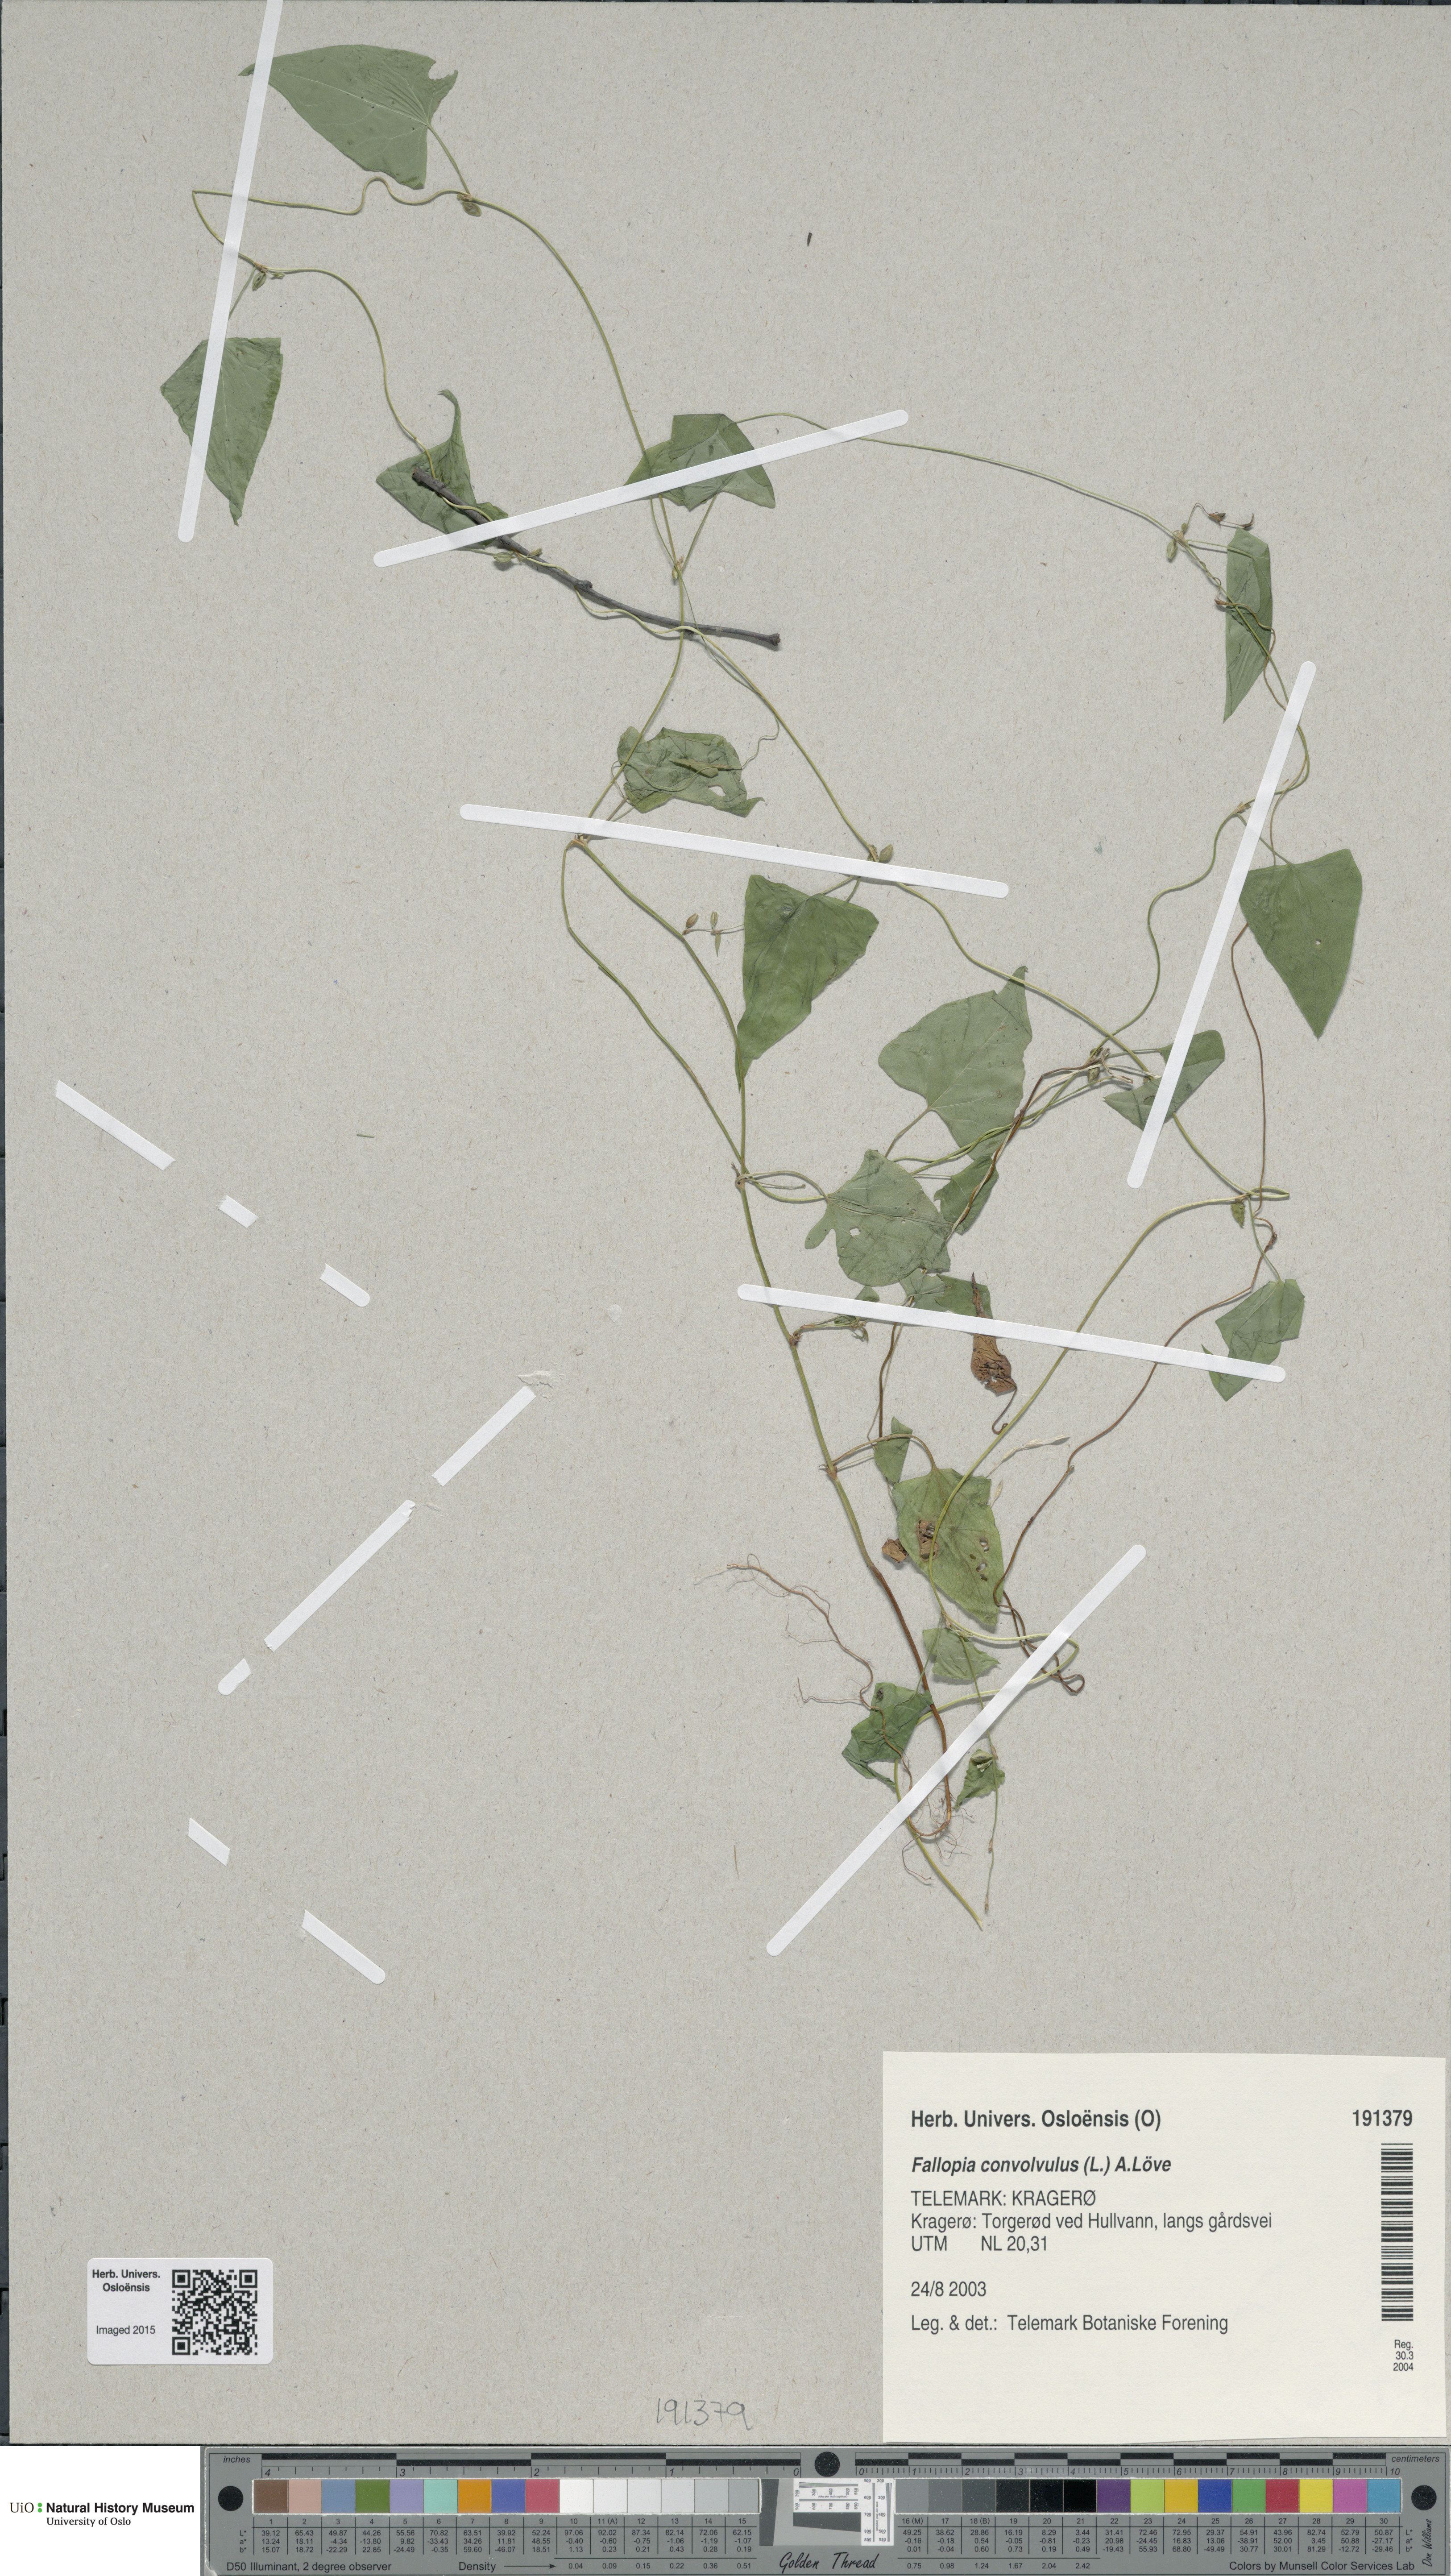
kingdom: Plantae
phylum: Tracheophyta
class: Magnoliopsida
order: Caryophyllales
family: Polygonaceae
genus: Fallopia
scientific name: Fallopia convolvulus
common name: Black bindweed
